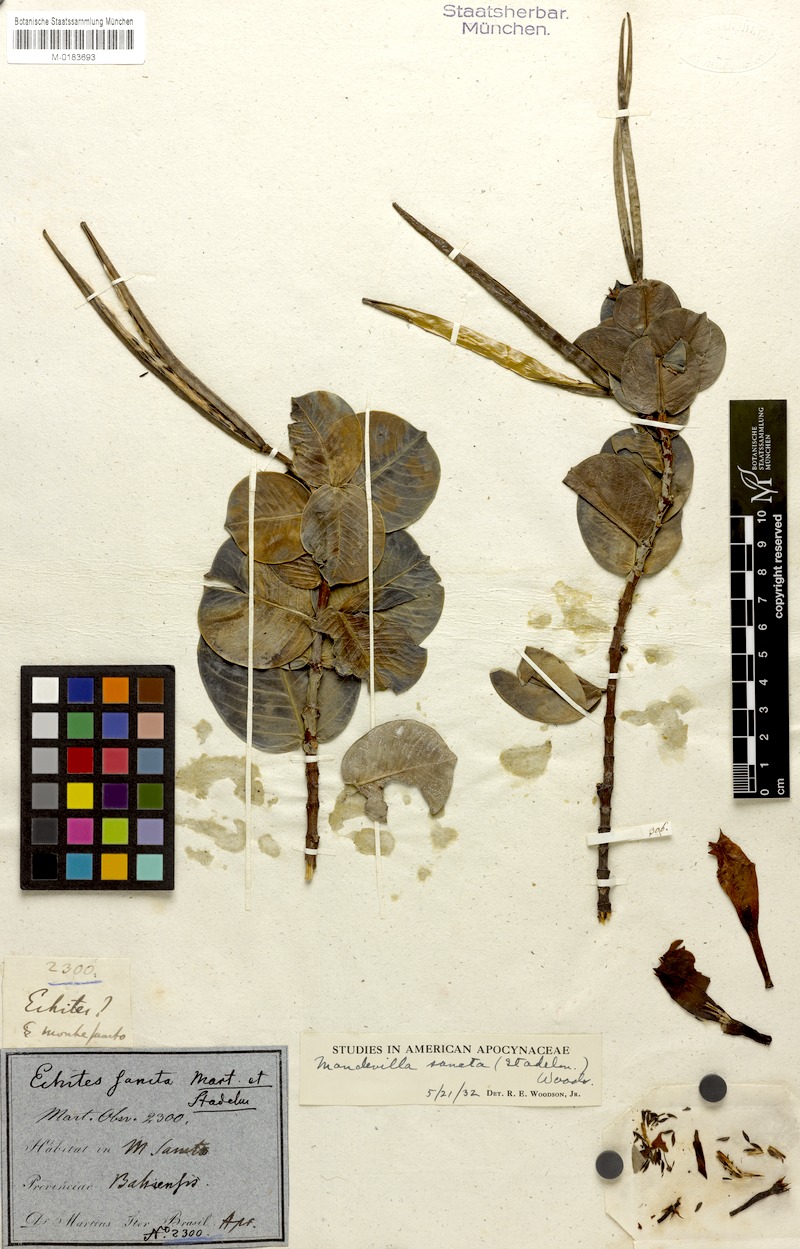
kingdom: Plantae
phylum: Tracheophyta
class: Magnoliopsida
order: Gentianales
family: Apocynaceae
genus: Mandevilla
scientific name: Mandevilla sancta
